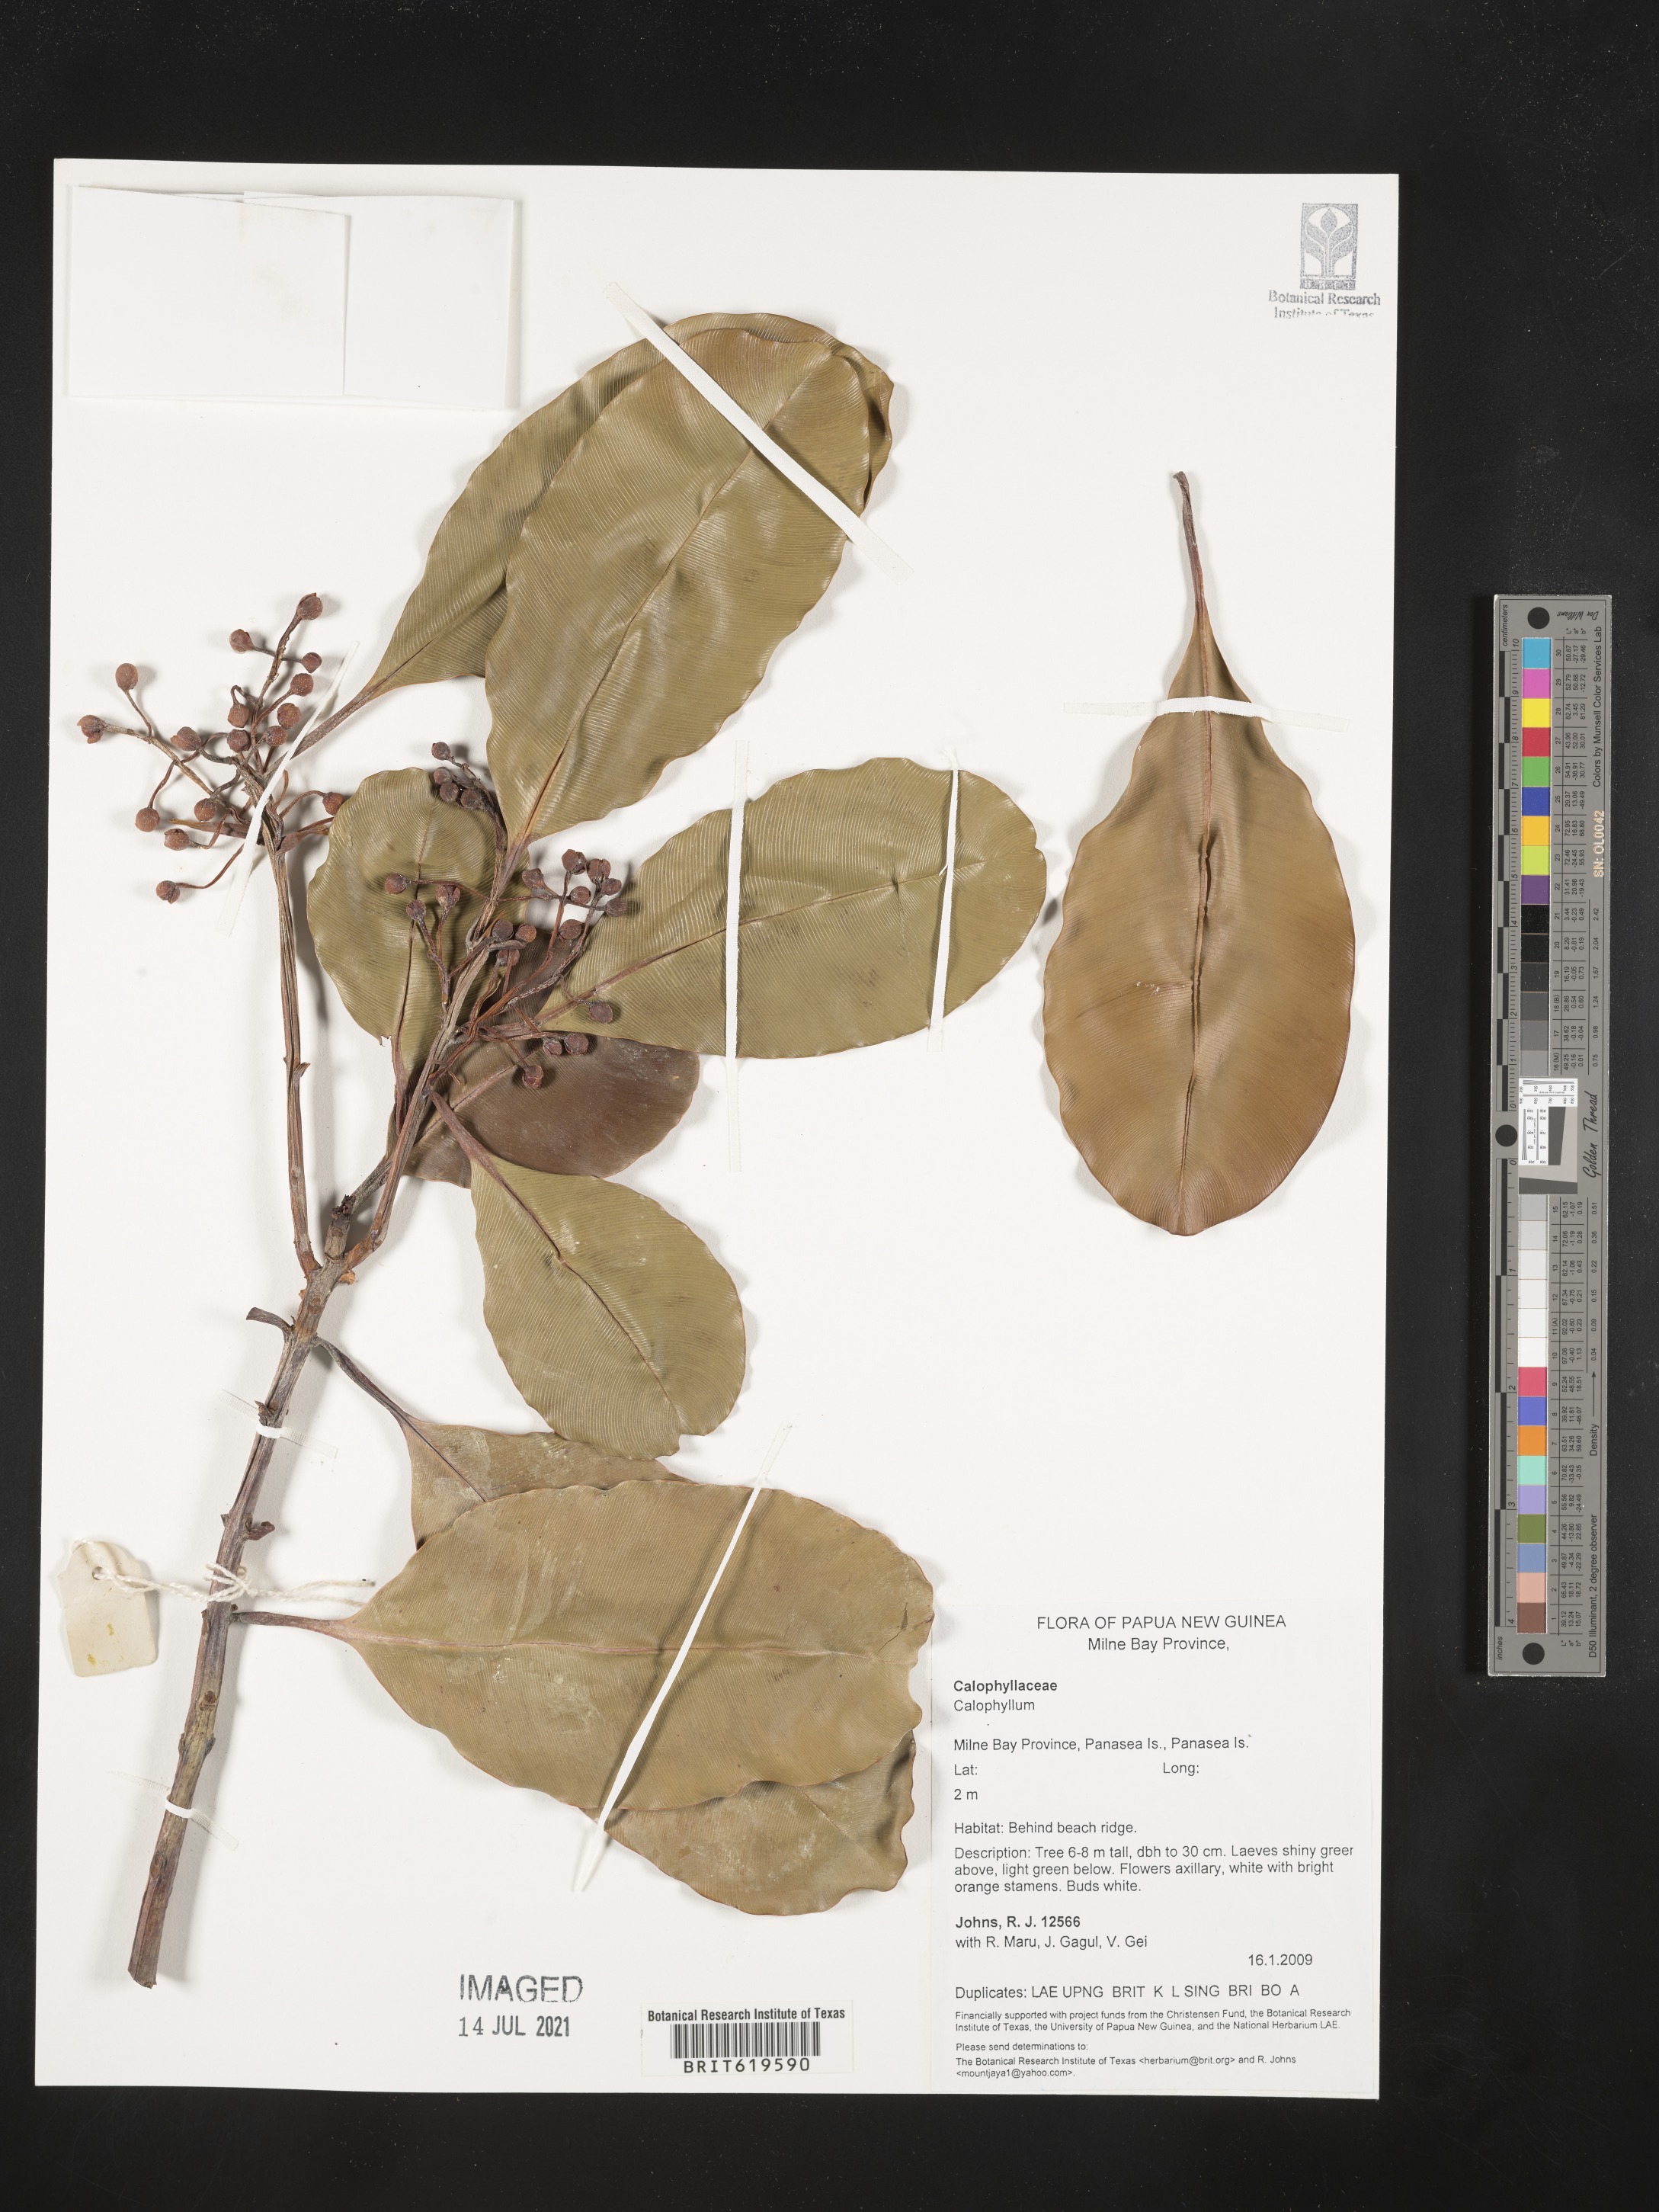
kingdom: Plantae
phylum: Tracheophyta
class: Magnoliopsida
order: Malpighiales
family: Calophyllaceae
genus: Calophyllum
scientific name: Calophyllum
